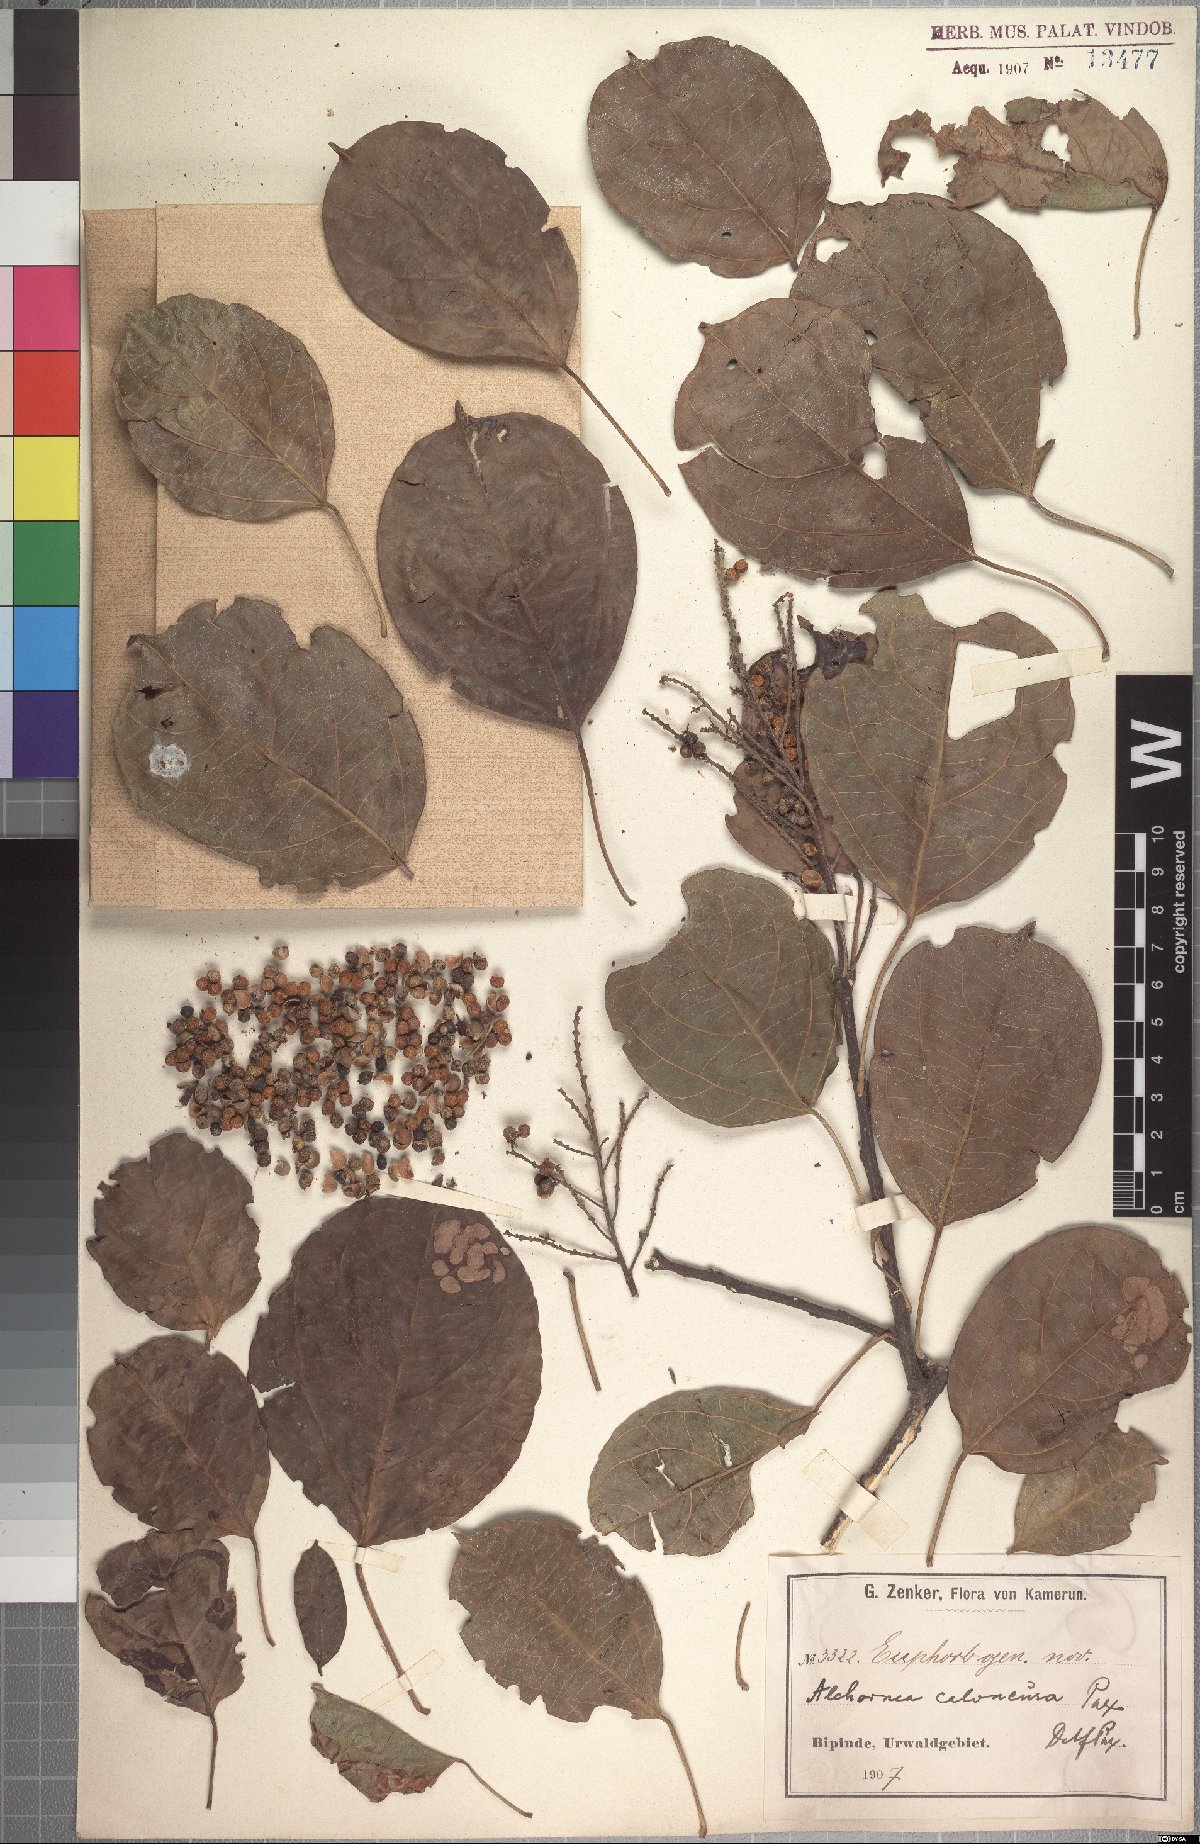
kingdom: Plantae
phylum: Tracheophyta
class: Magnoliopsida
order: Malpighiales
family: Euphorbiaceae
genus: Discoglypremna
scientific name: Discoglypremna caloneura
